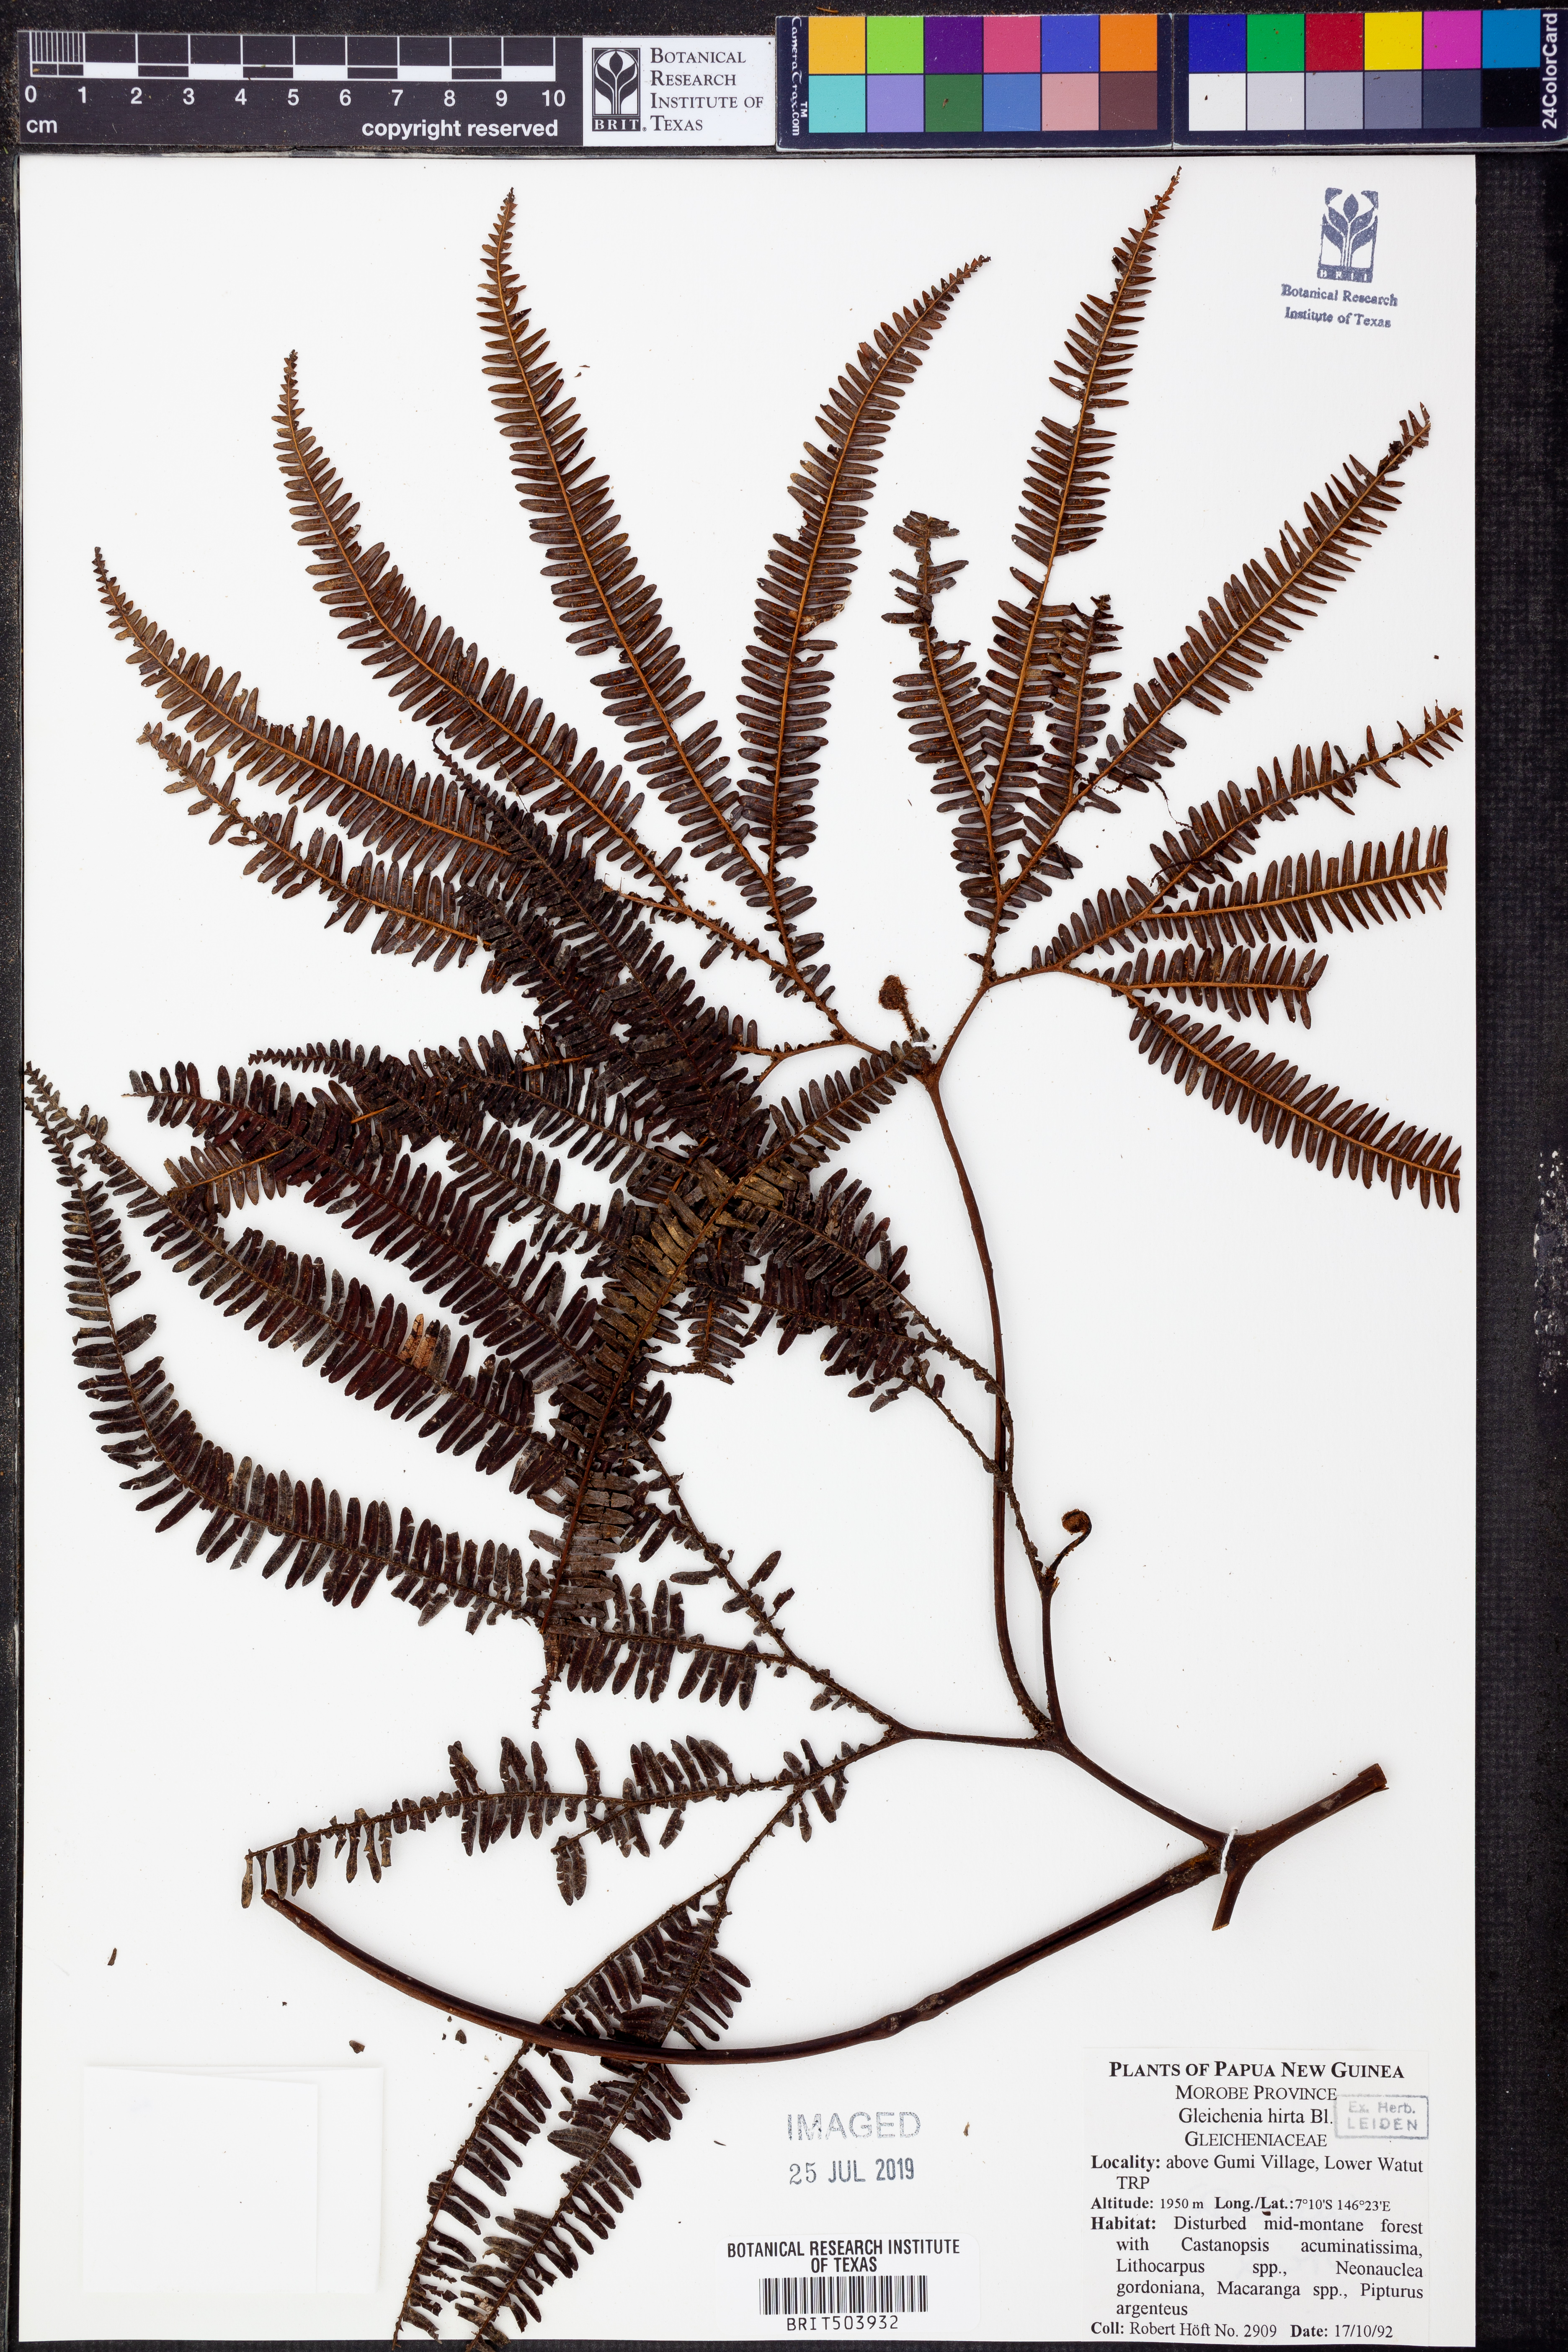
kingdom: Plantae
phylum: Tracheophyta
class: Polypodiopsida
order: Gleicheniales
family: Gleicheniaceae
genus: Sticherus
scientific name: Sticherus hirtus
